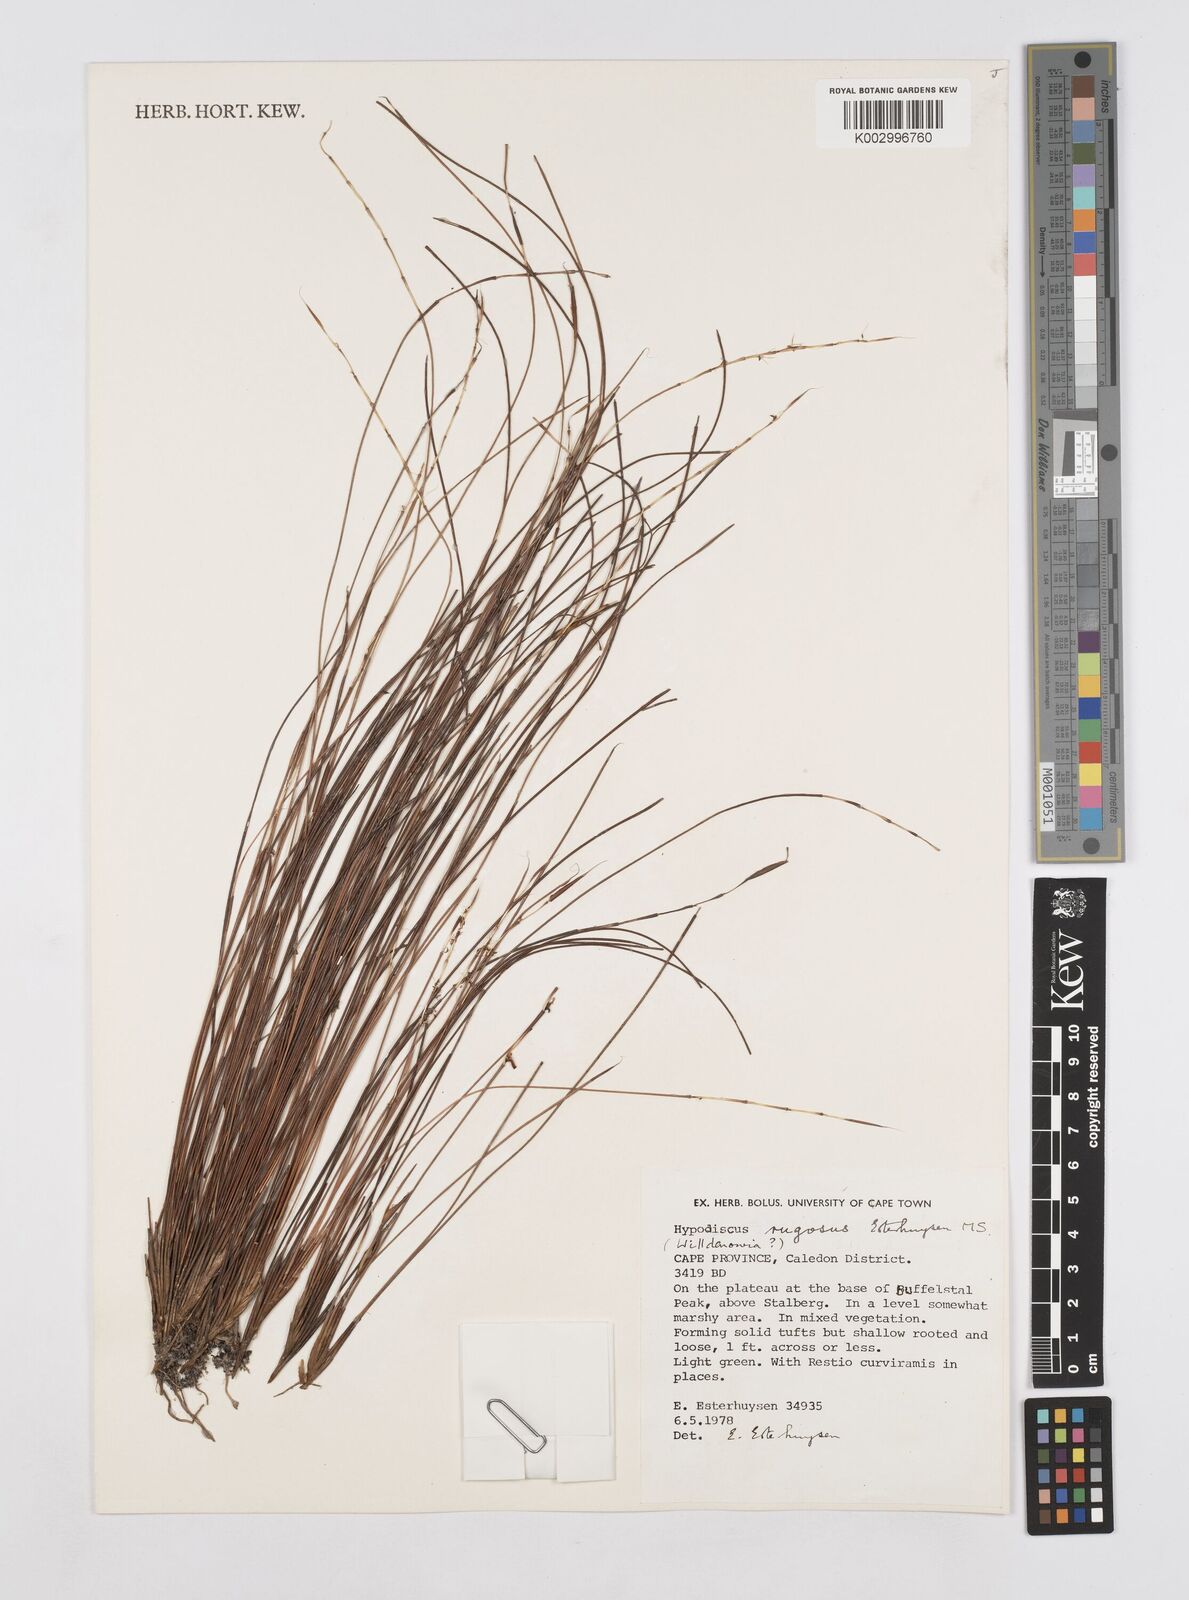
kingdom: Plantae
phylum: Tracheophyta
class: Liliopsida
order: Poales
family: Restionaceae
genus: Willdenowia
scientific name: Willdenowia rugosa
